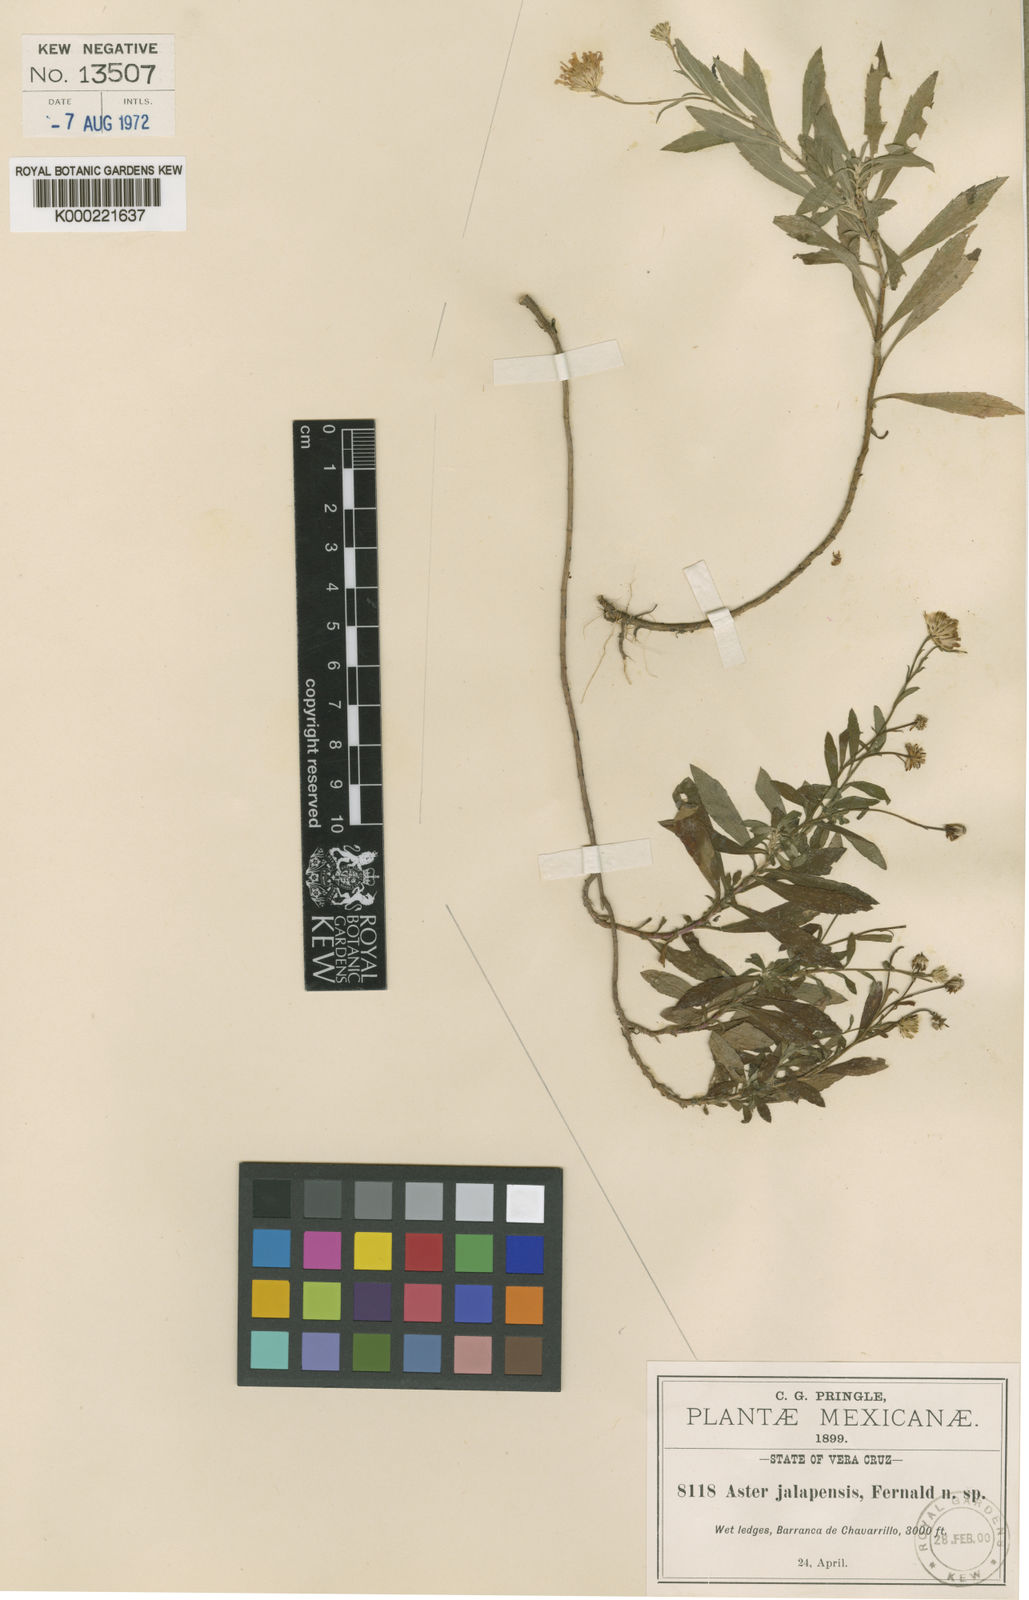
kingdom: Plantae
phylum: Tracheophyta
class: Magnoliopsida
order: Asterales
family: Asteraceae
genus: Symphyotrichum
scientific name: Symphyotrichum bullatum
